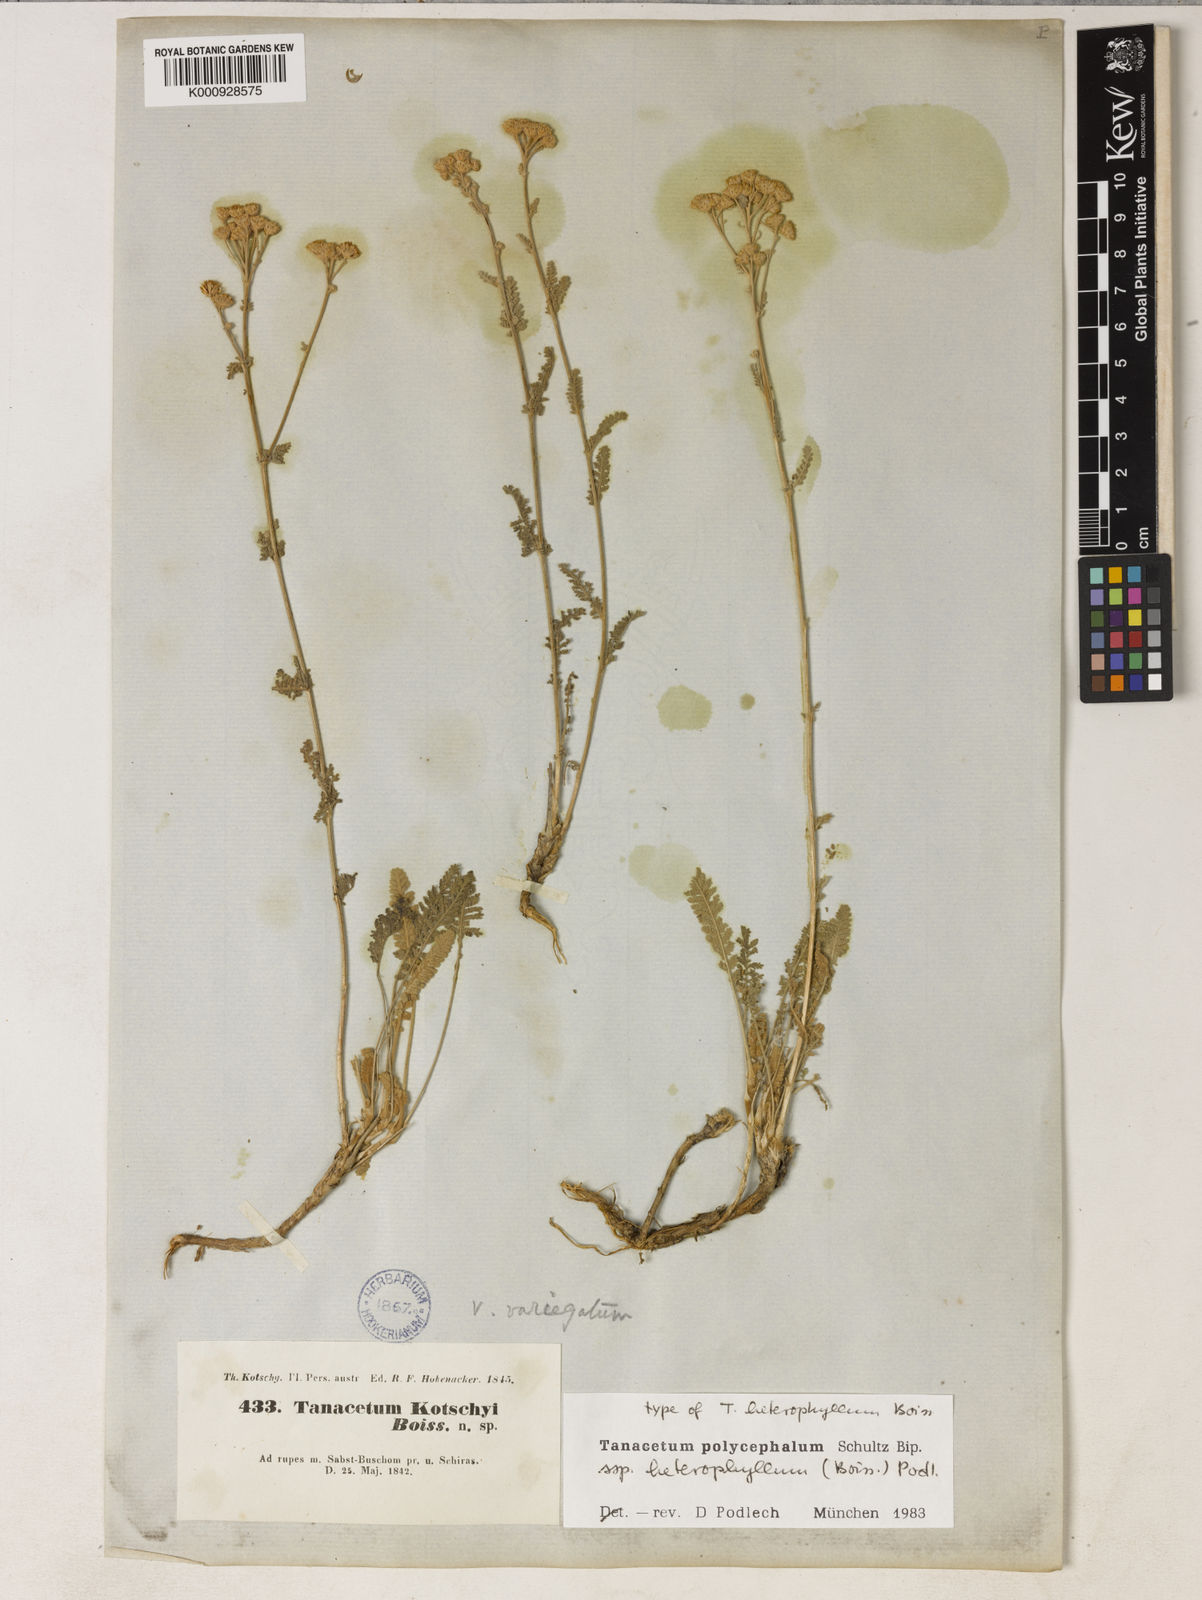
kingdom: Plantae
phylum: Tracheophyta
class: Magnoliopsida
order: Asterales
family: Asteraceae
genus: Tanacetum
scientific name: Tanacetum polycephalum
